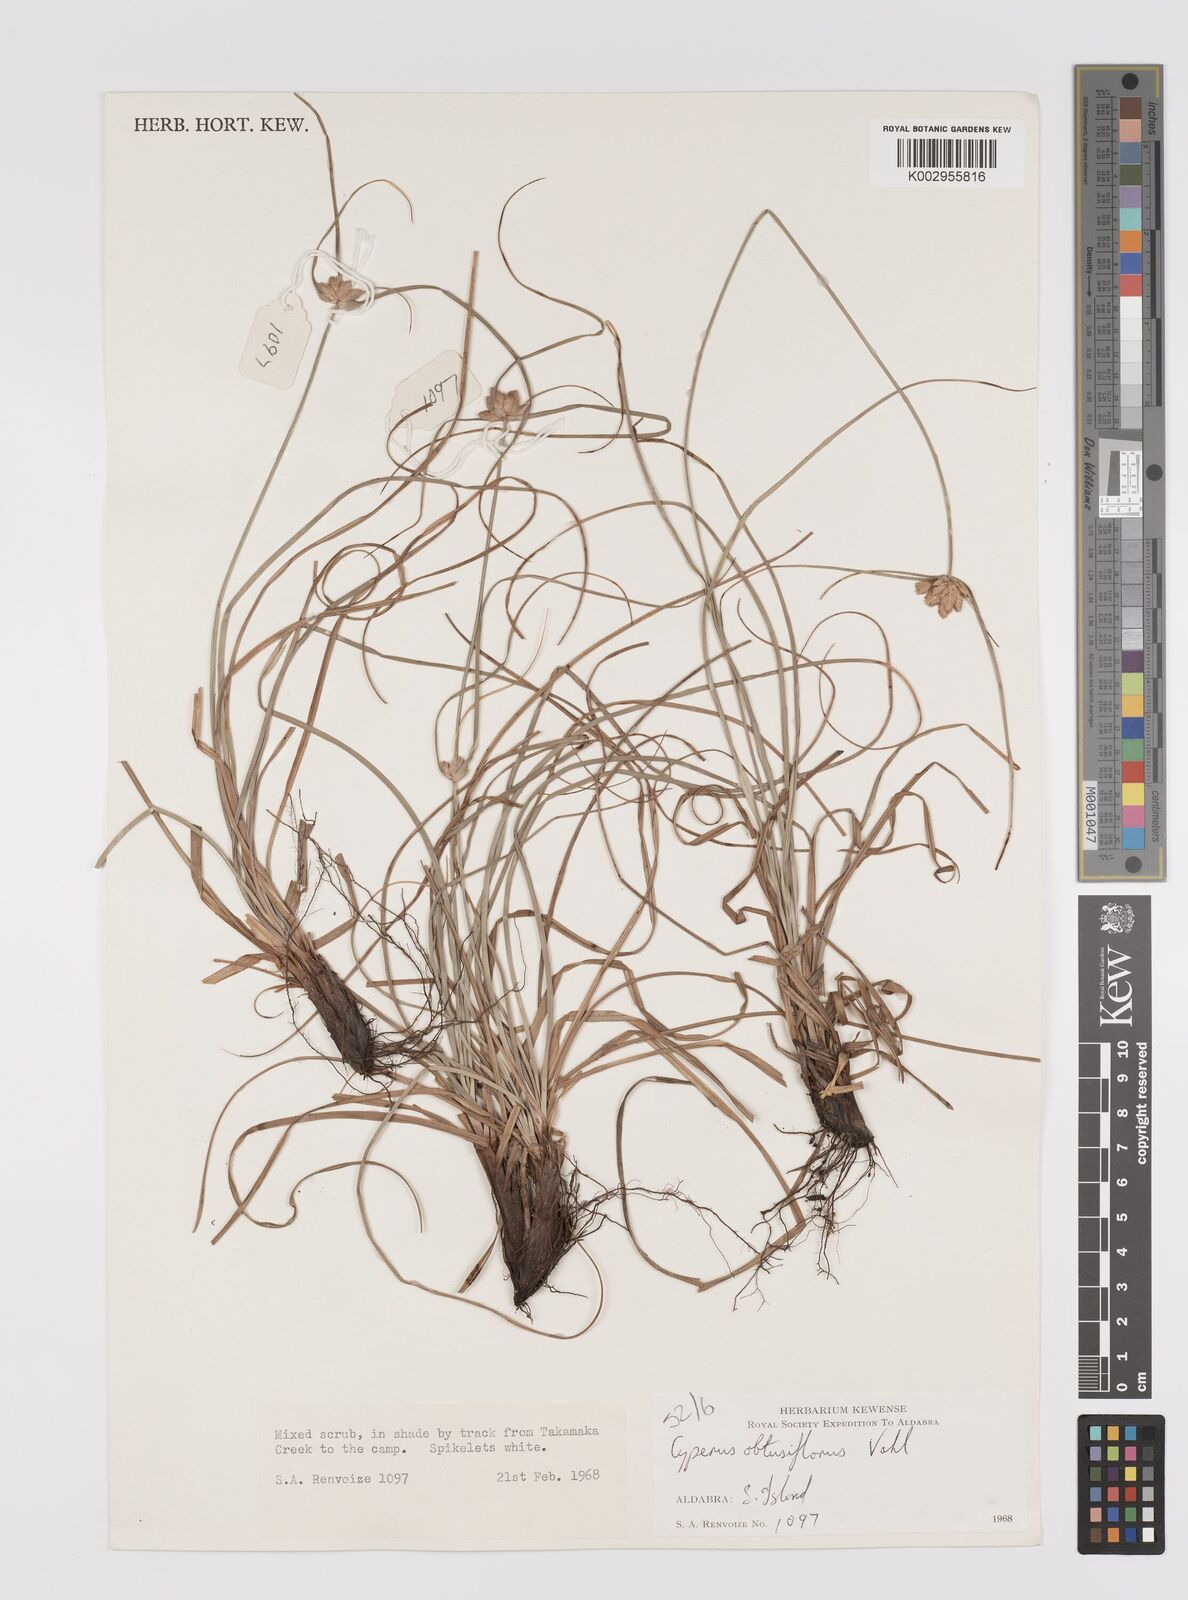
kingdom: Plantae
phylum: Tracheophyta
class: Liliopsida
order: Poales
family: Cyperaceae
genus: Cyperus
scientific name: Cyperus niveus
